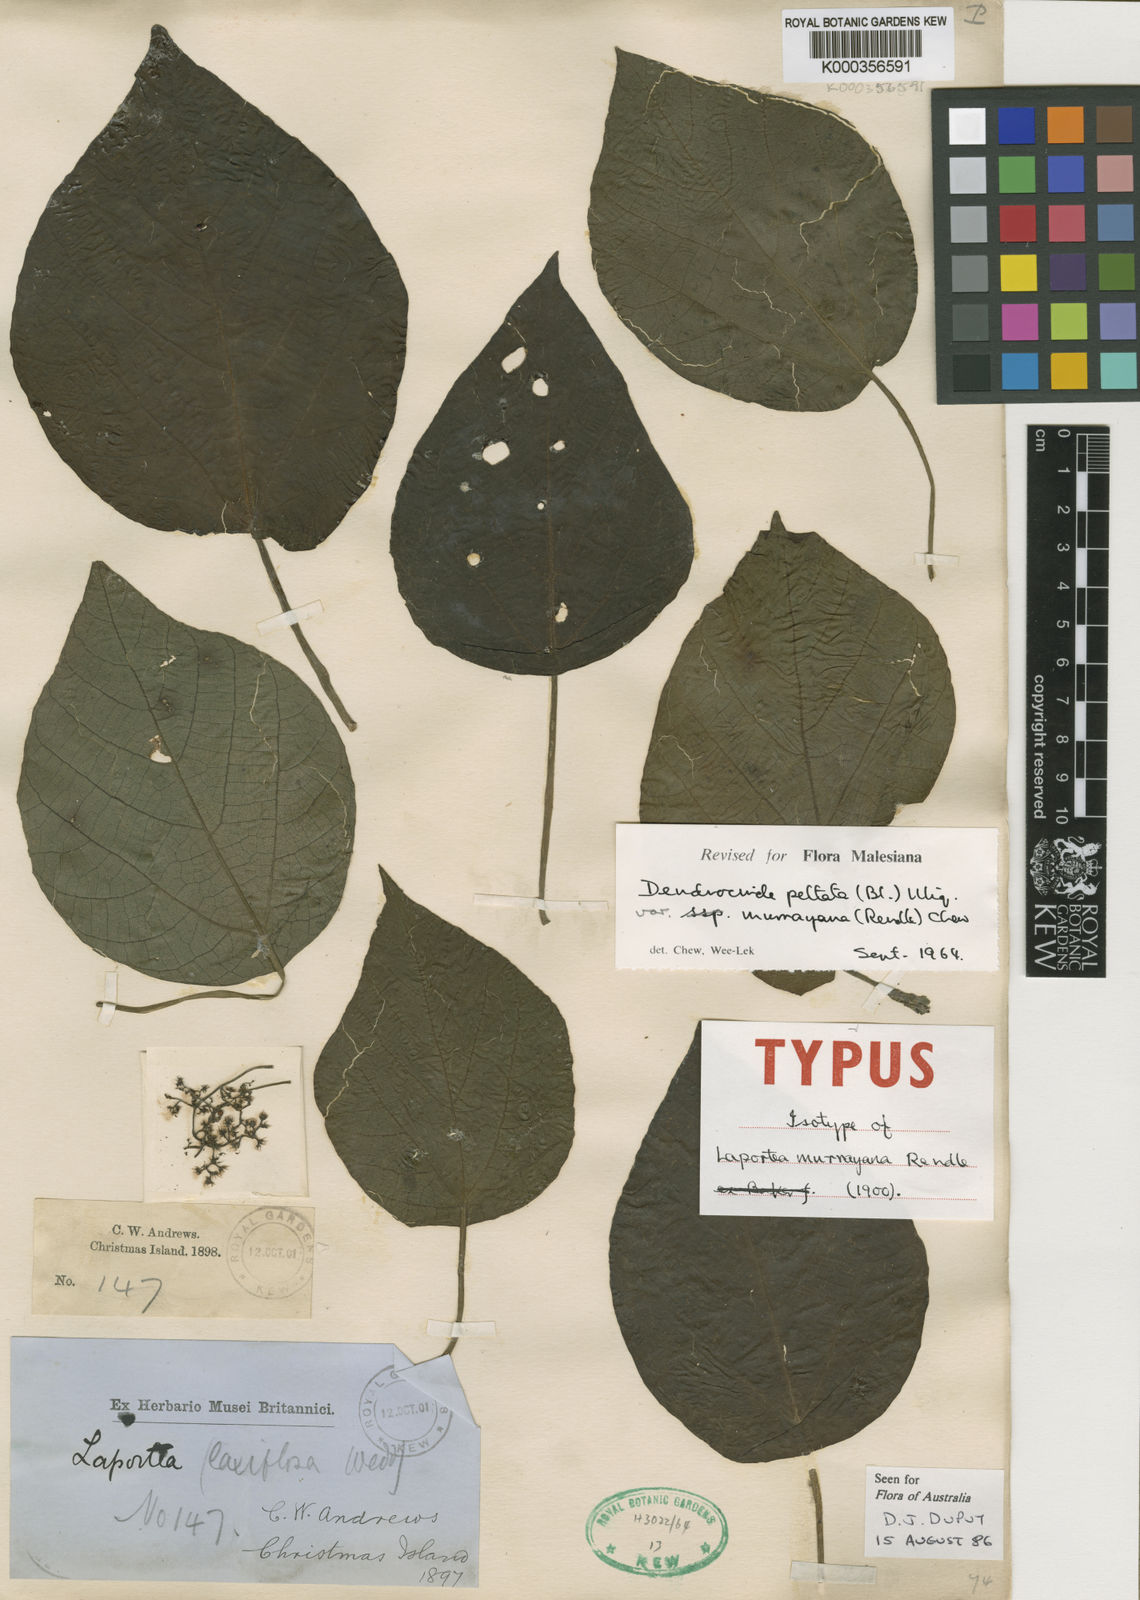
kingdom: Plantae
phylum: Tracheophyta
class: Magnoliopsida
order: Rosales
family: Urticaceae
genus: Dendrocnide
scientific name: Dendrocnide peltata
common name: Stinging tree
